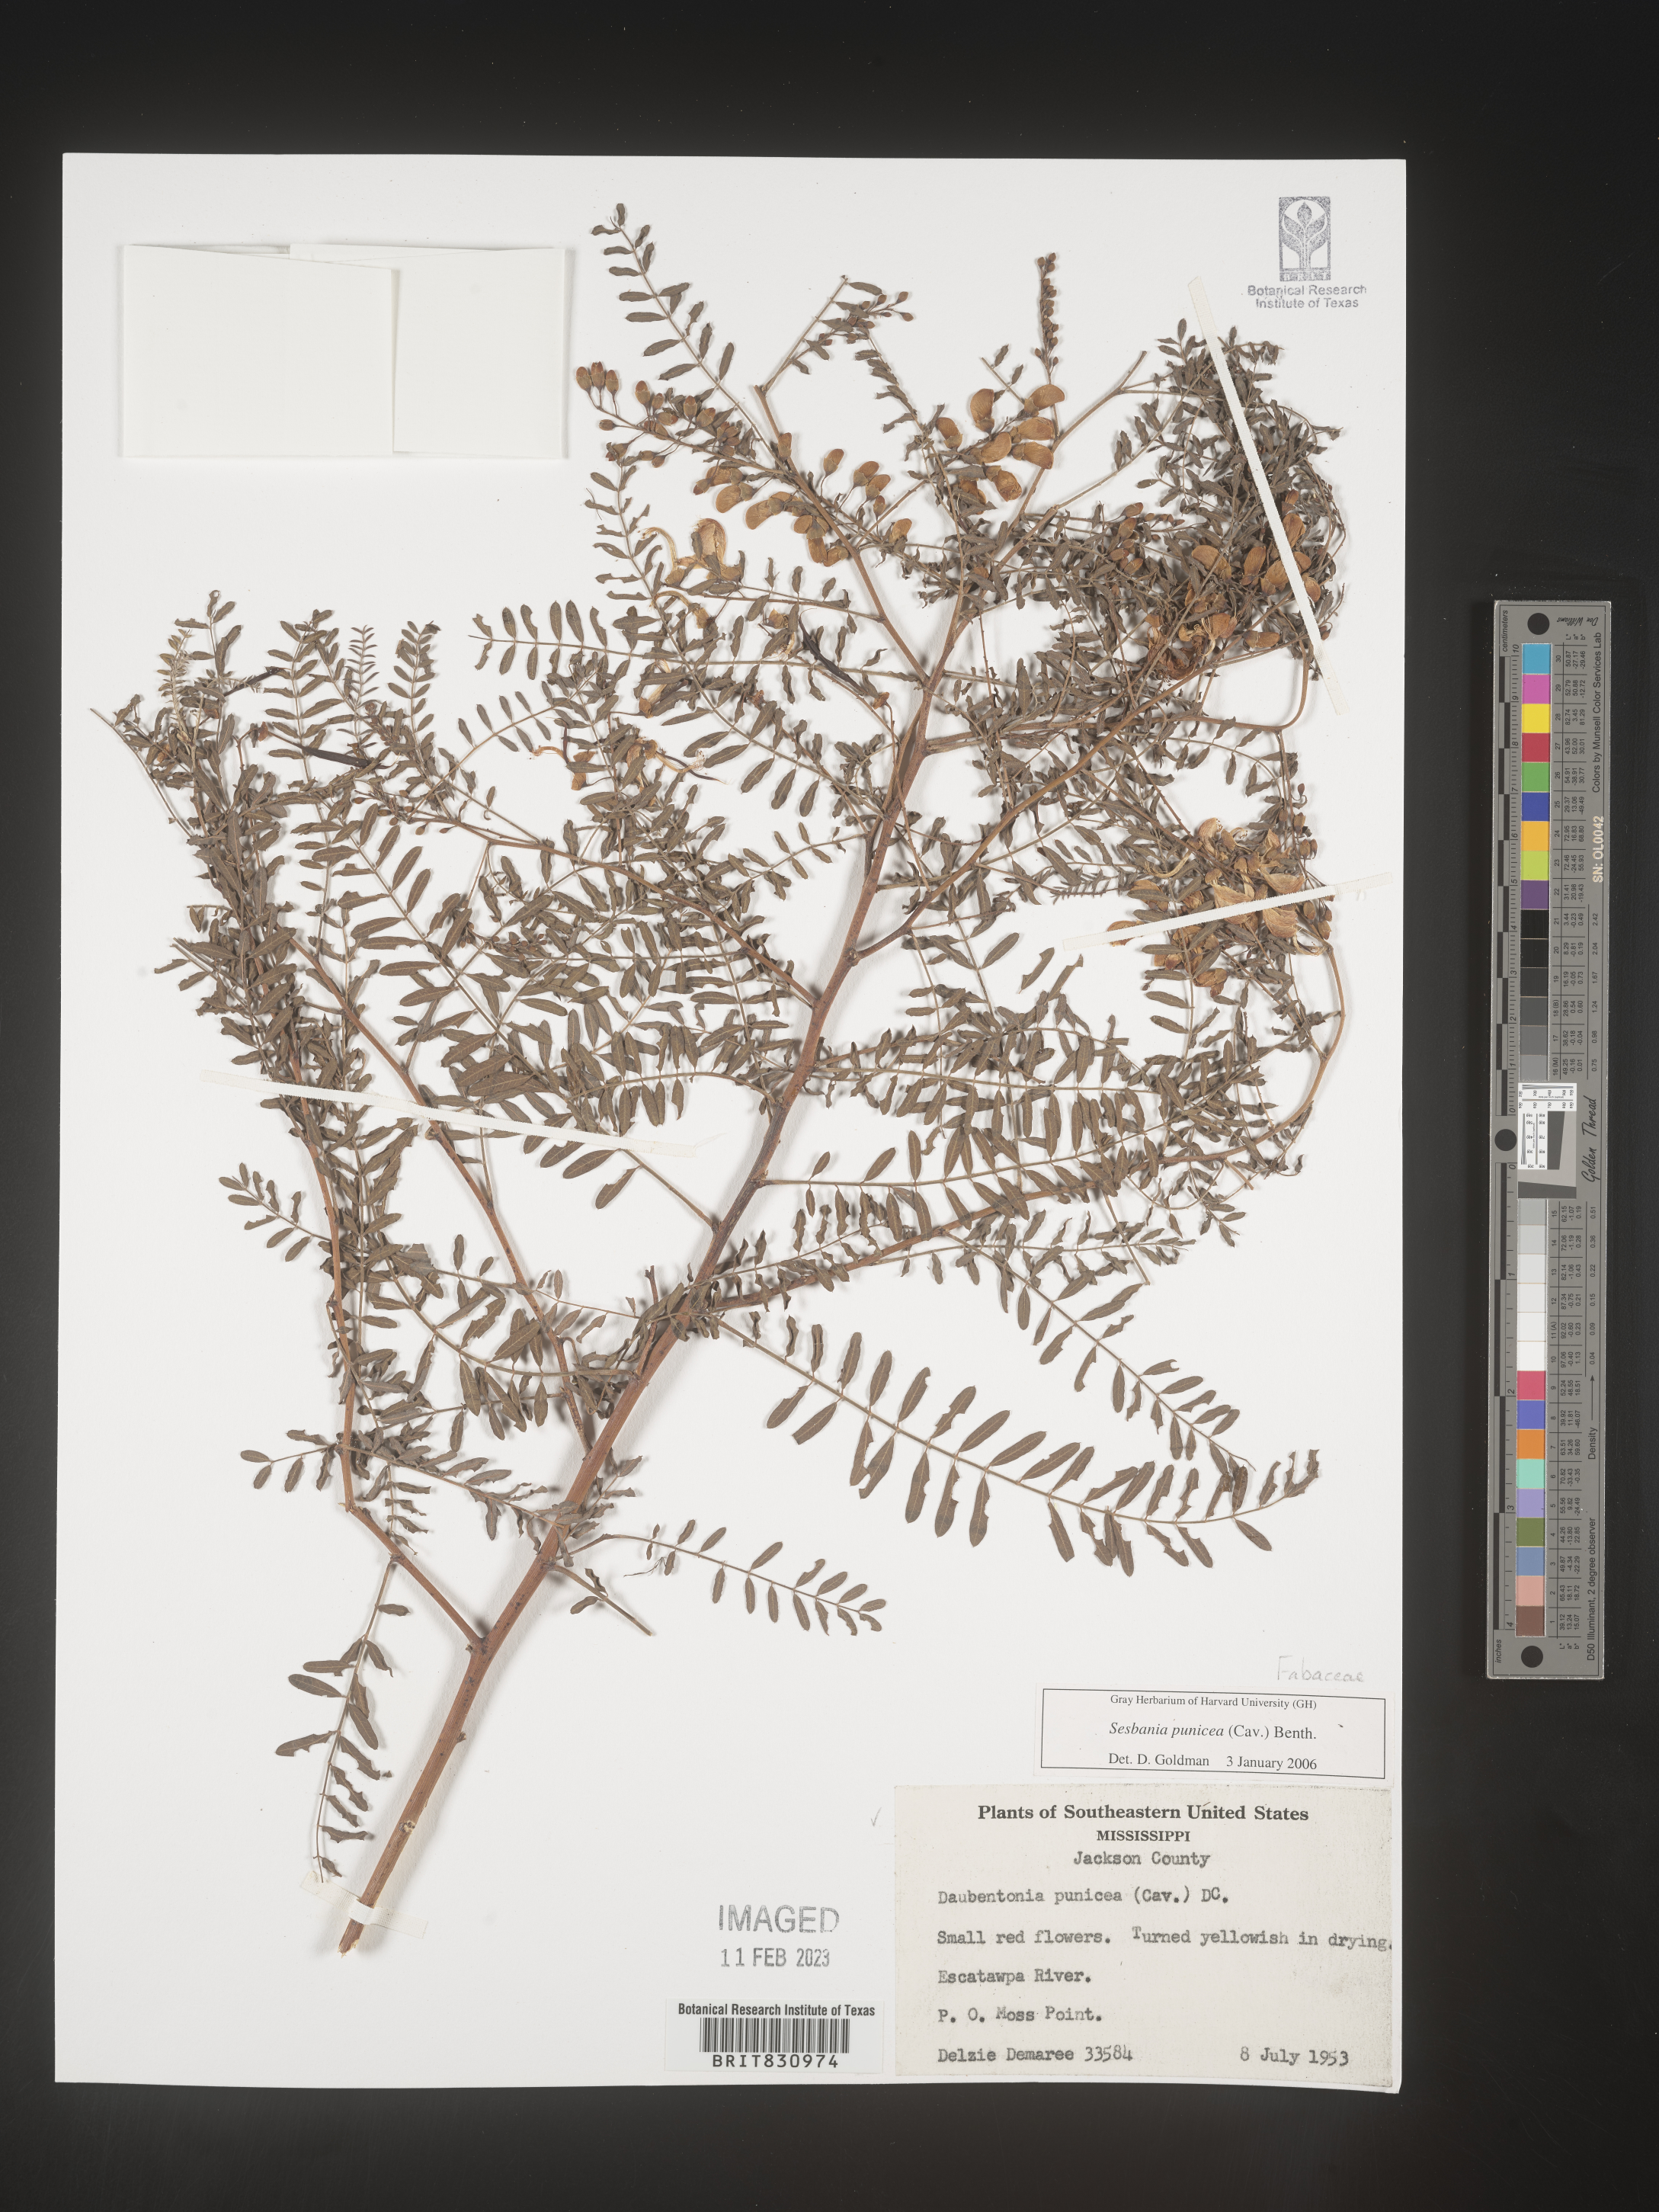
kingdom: Plantae
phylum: Tracheophyta
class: Magnoliopsida
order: Fabales
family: Fabaceae
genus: Sesbania
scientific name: Sesbania punicea
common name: Rattlebox
